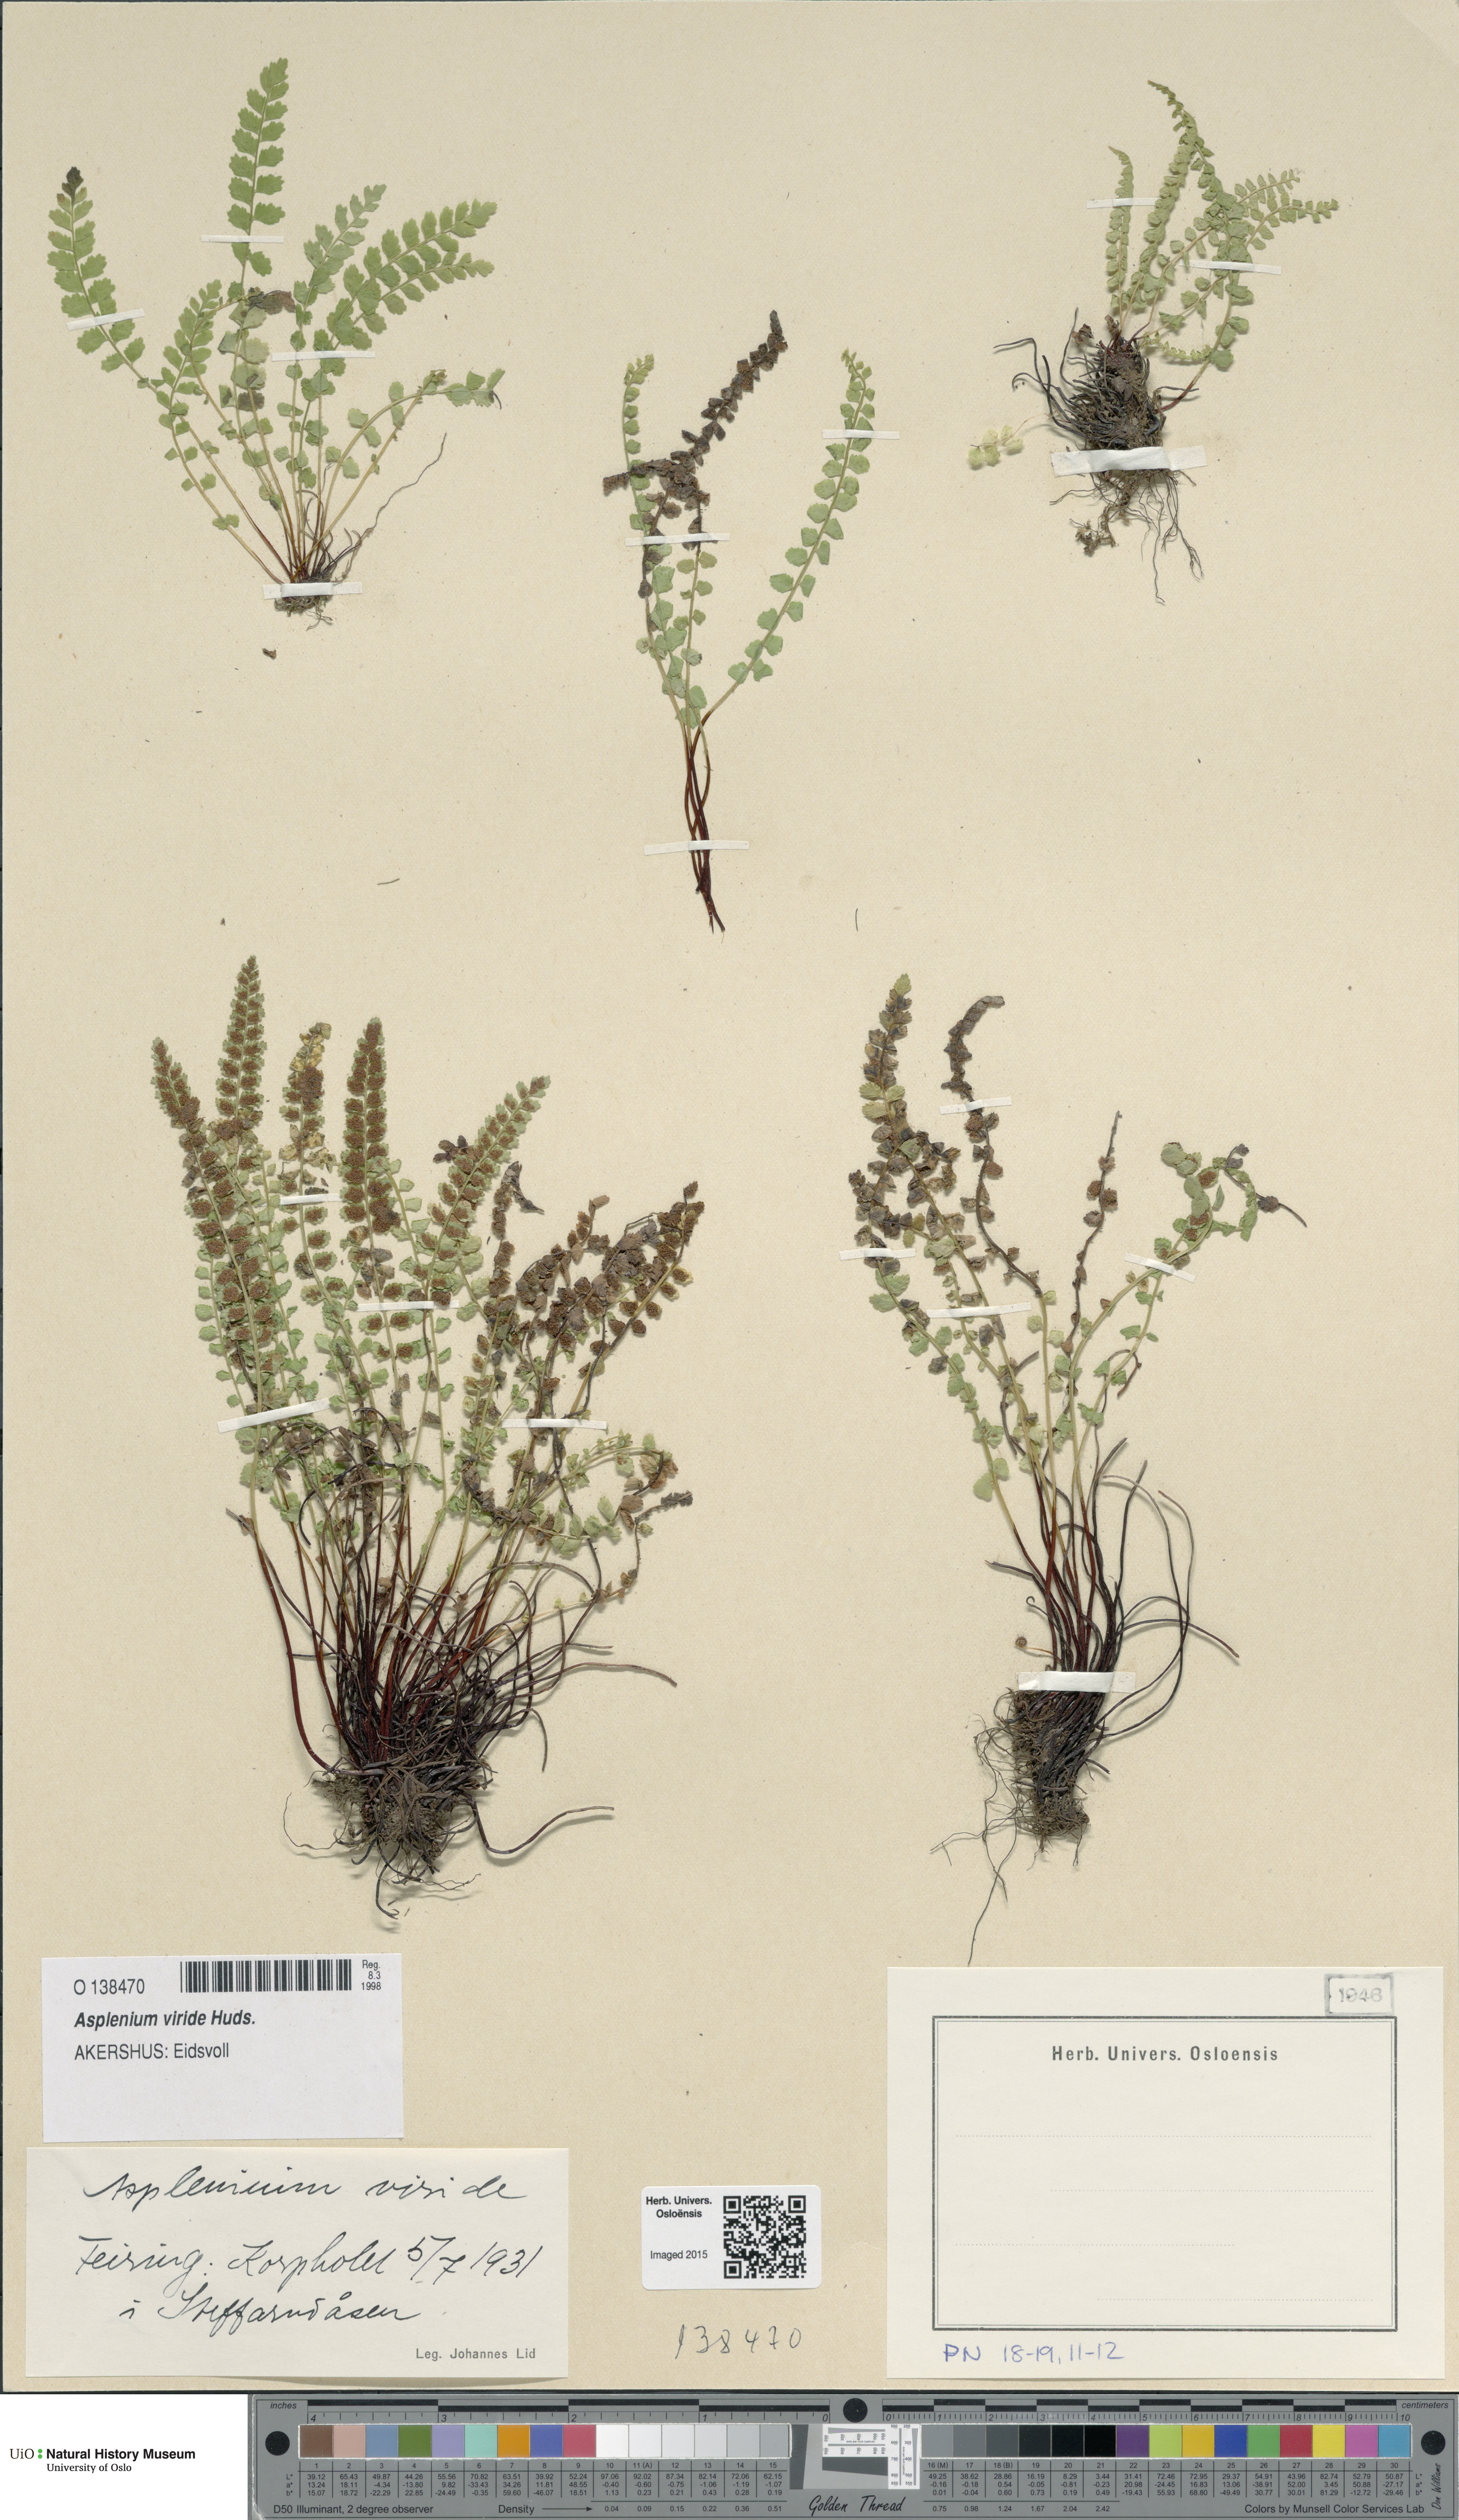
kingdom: Plantae
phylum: Tracheophyta
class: Polypodiopsida
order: Polypodiales
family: Aspleniaceae
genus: Asplenium
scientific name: Asplenium viride
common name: Green spleenwort
